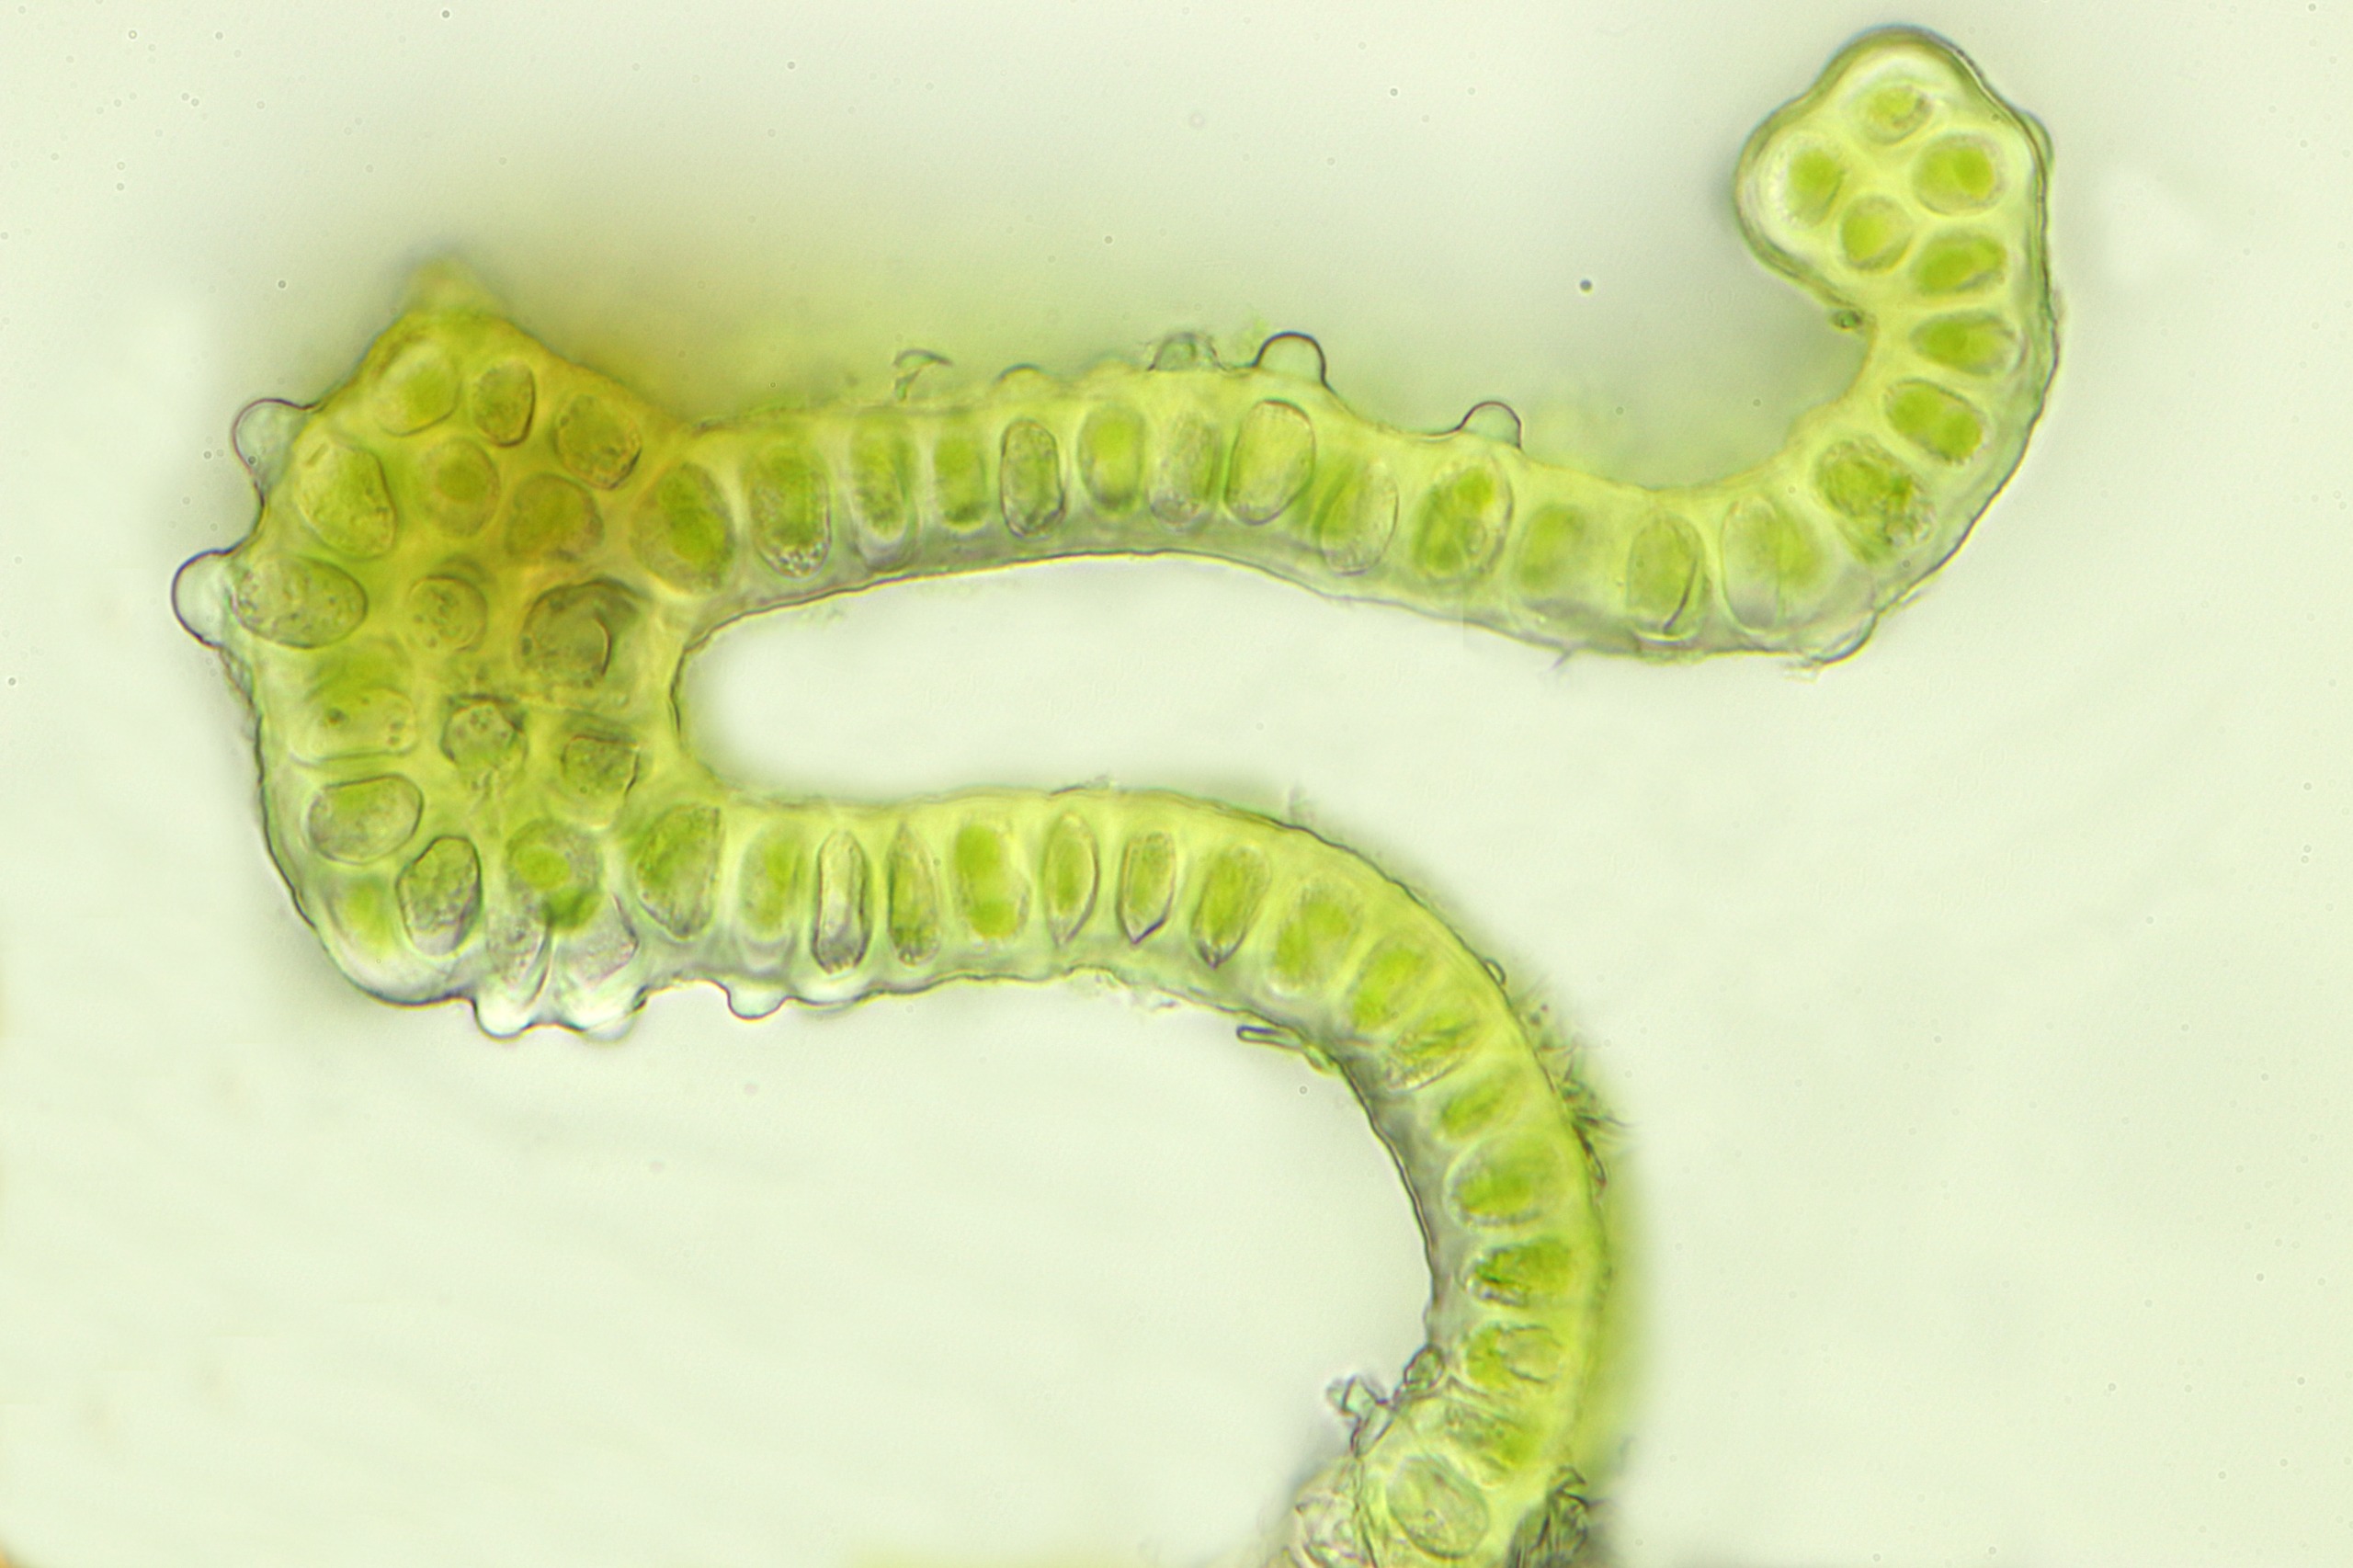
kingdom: Plantae
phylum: Bryophyta
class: Bryopsida
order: Grimmiales
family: Grimmiaceae
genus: Schistidium
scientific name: Schistidium papillosum
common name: Papil-strålekransmos
